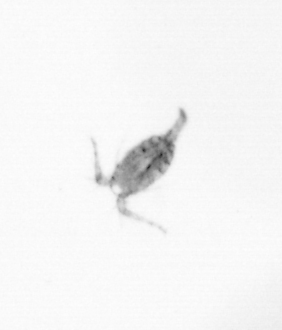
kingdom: Animalia
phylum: Arthropoda
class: Copepoda
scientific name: Copepoda
